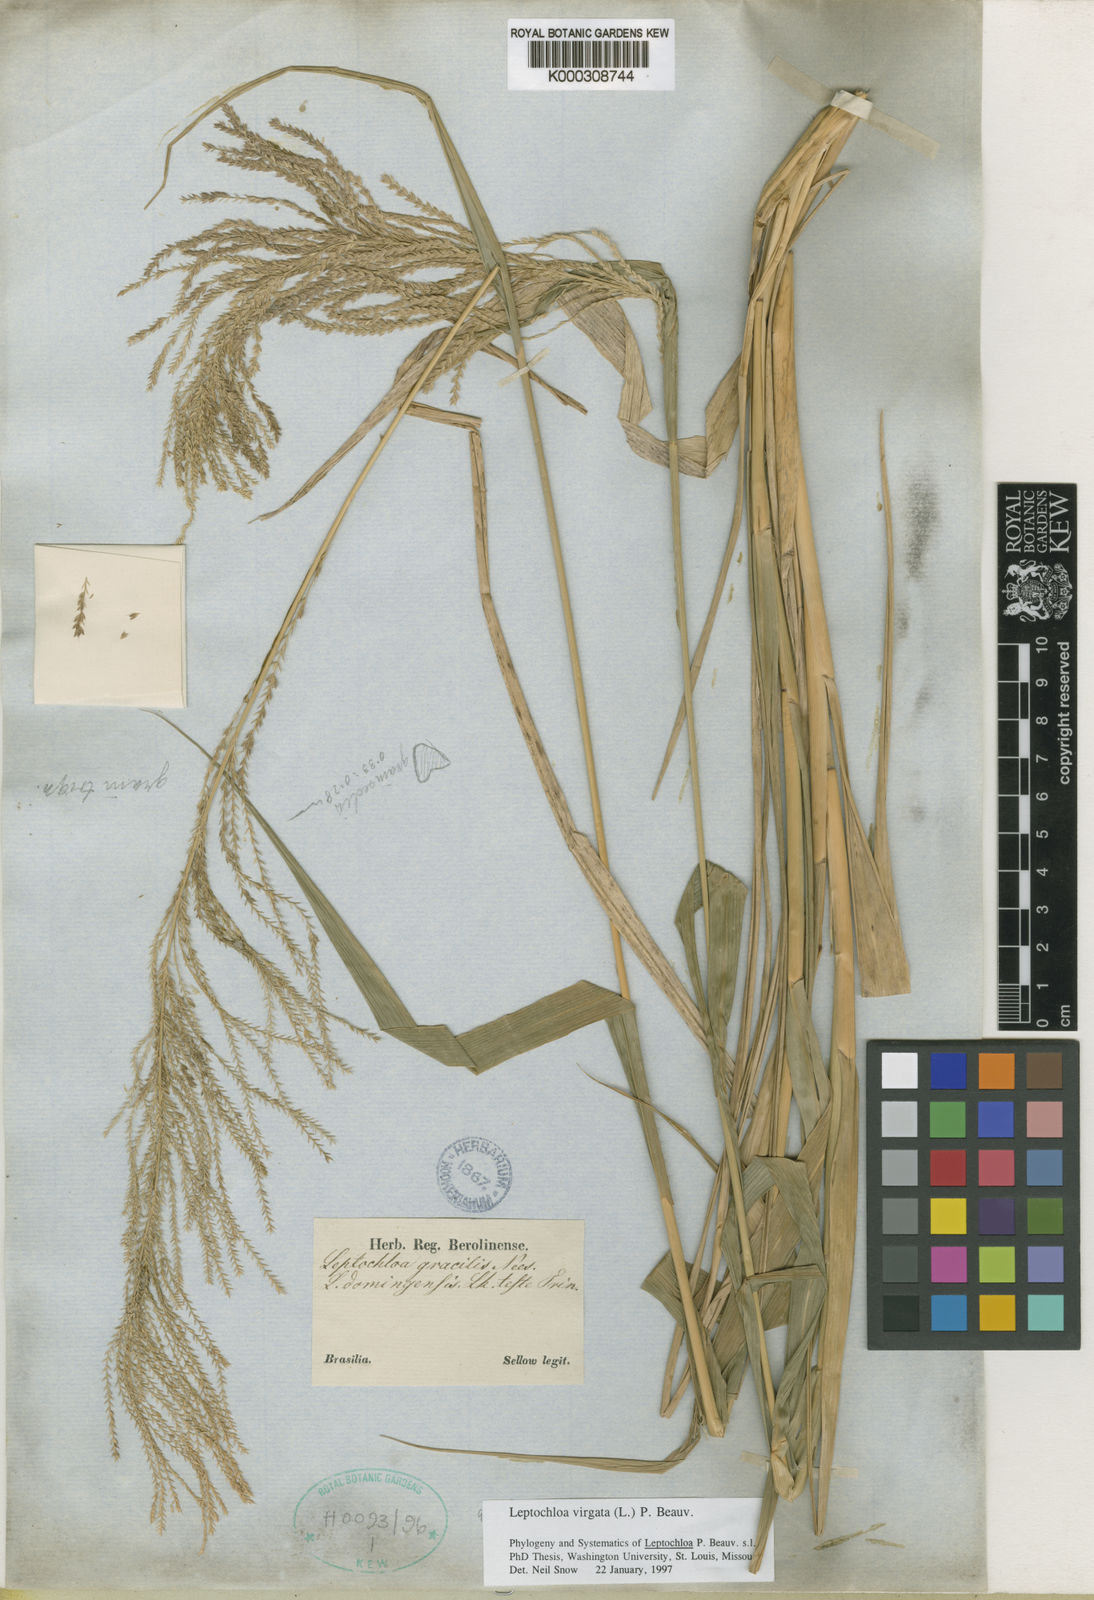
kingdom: Plantae
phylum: Tracheophyta
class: Liliopsida
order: Poales
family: Poaceae
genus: Leptochloa
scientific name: Leptochloa virgata
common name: Tropical sprangletop
